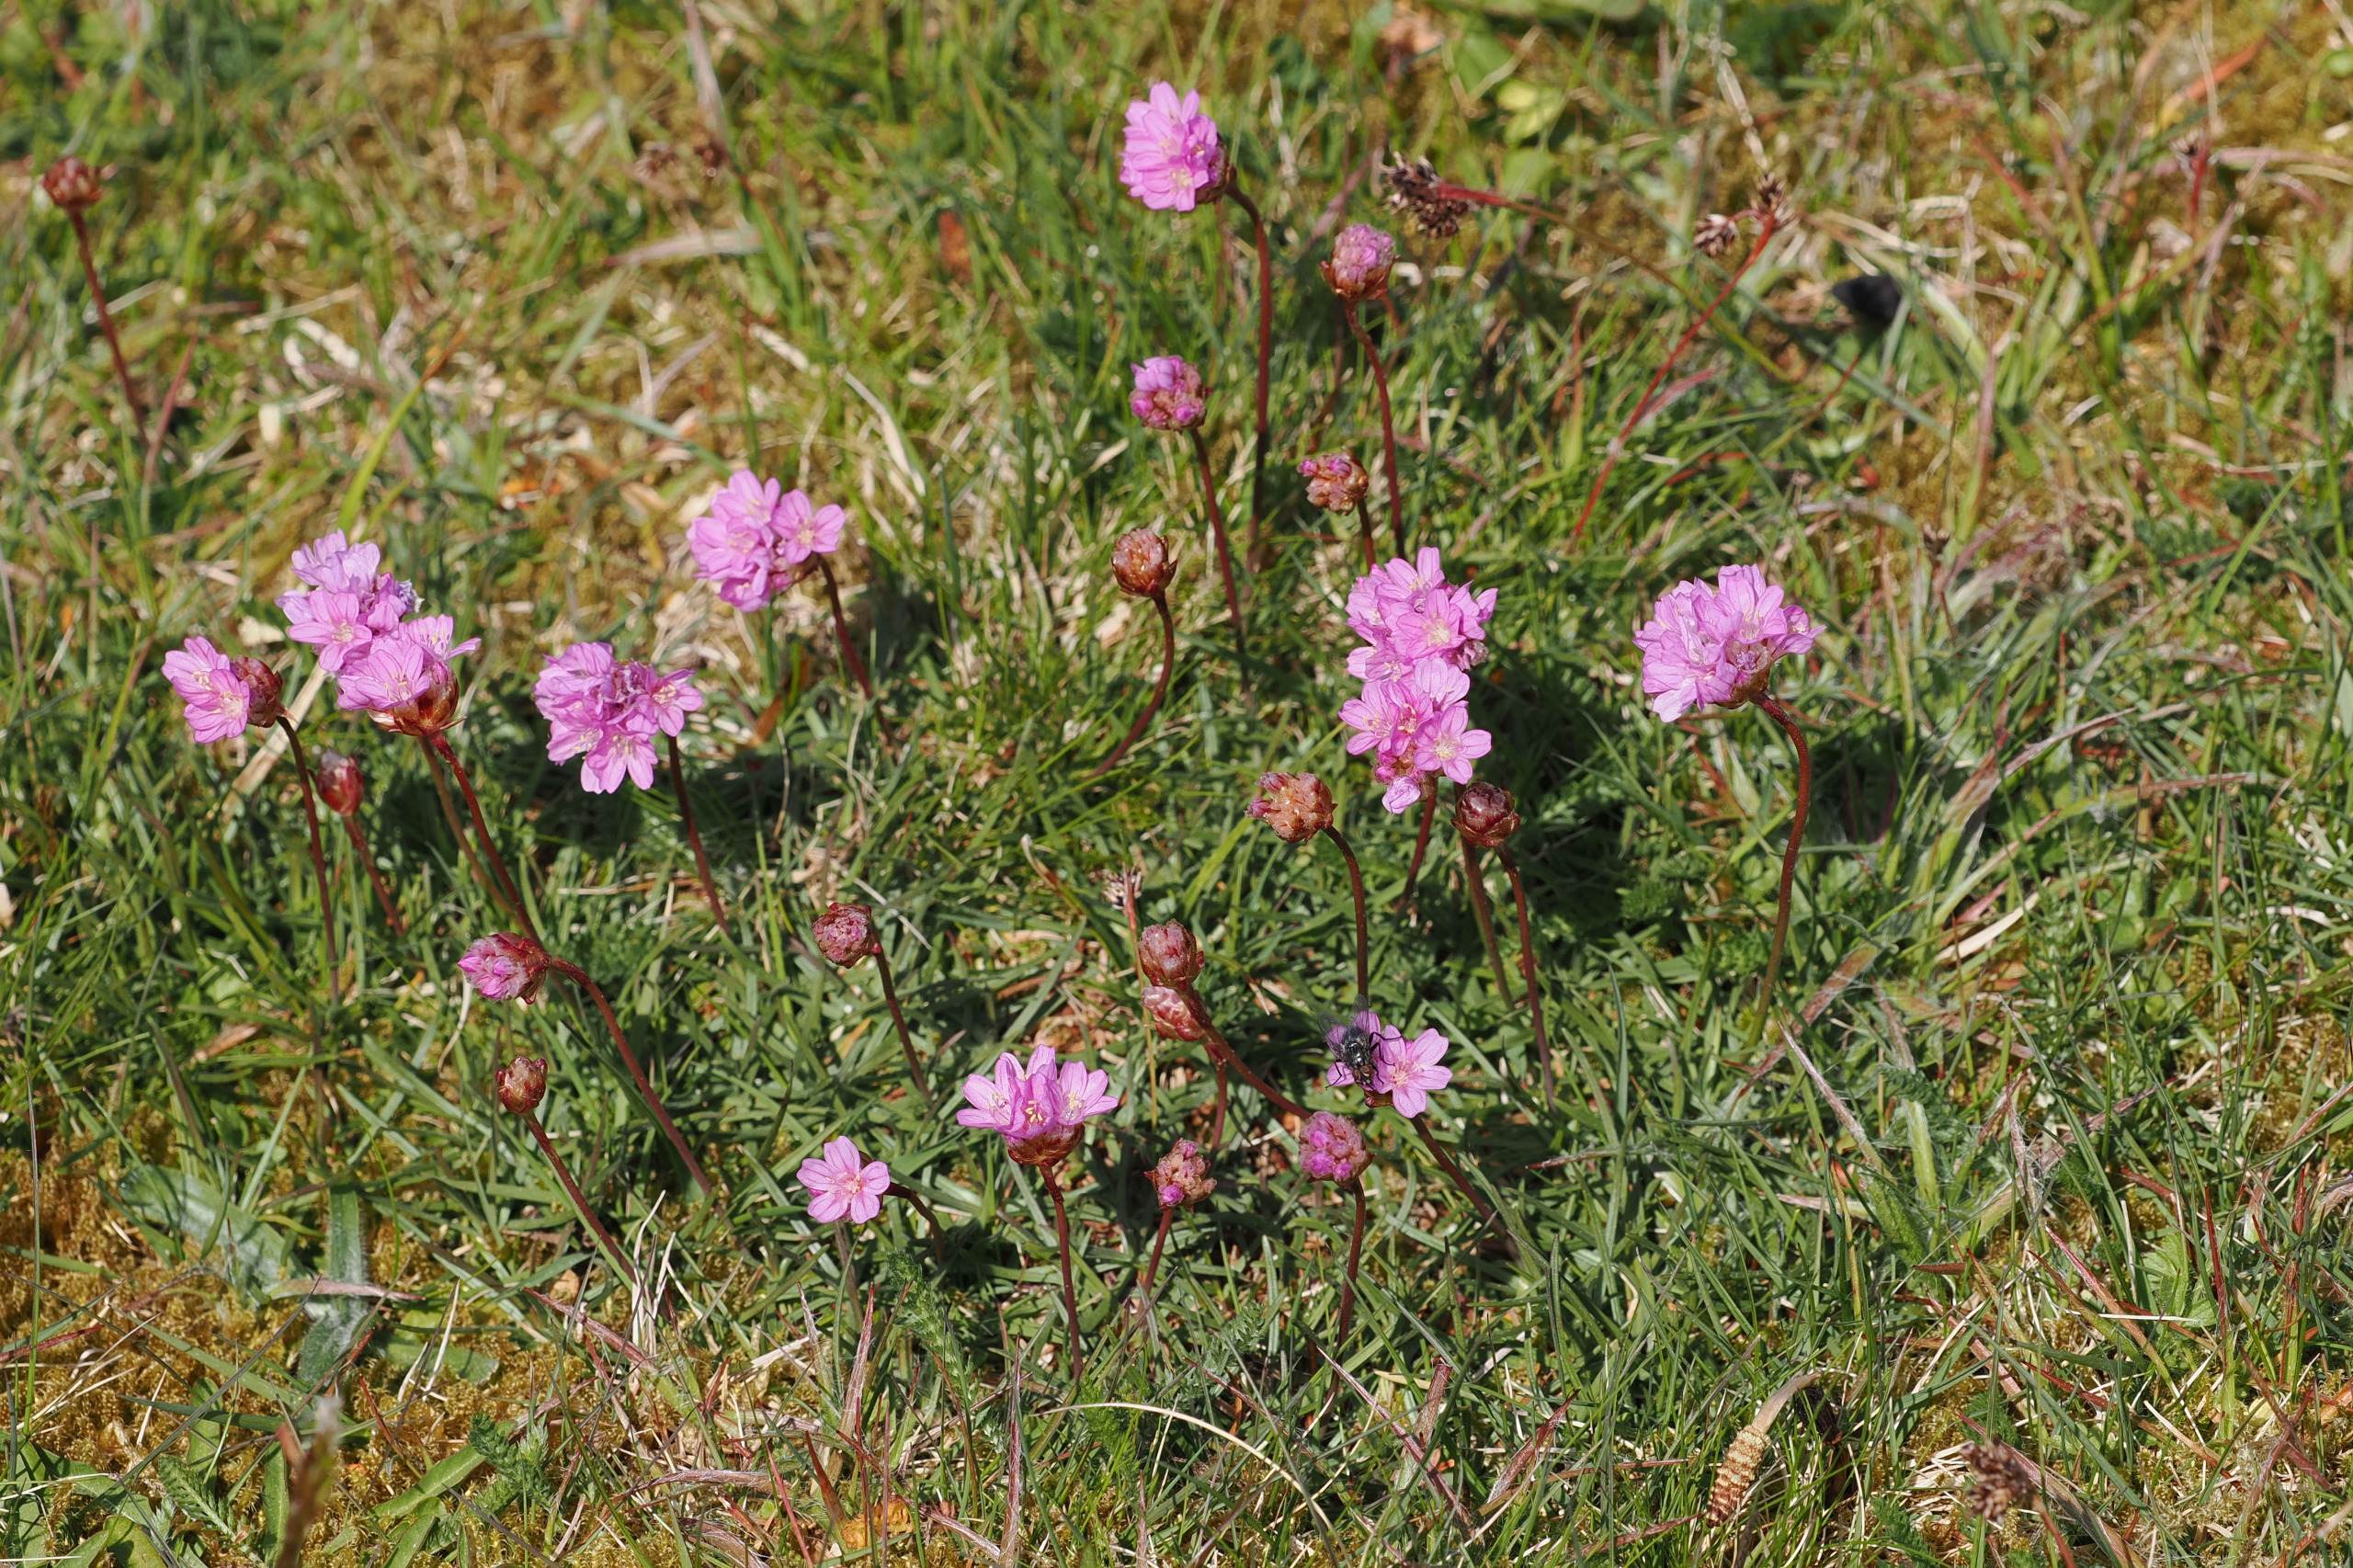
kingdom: Plantae
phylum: Tracheophyta
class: Magnoliopsida
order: Caryophyllales
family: Plumbaginaceae
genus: Armeria
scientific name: Armeria maritima
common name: Engelskgræs
